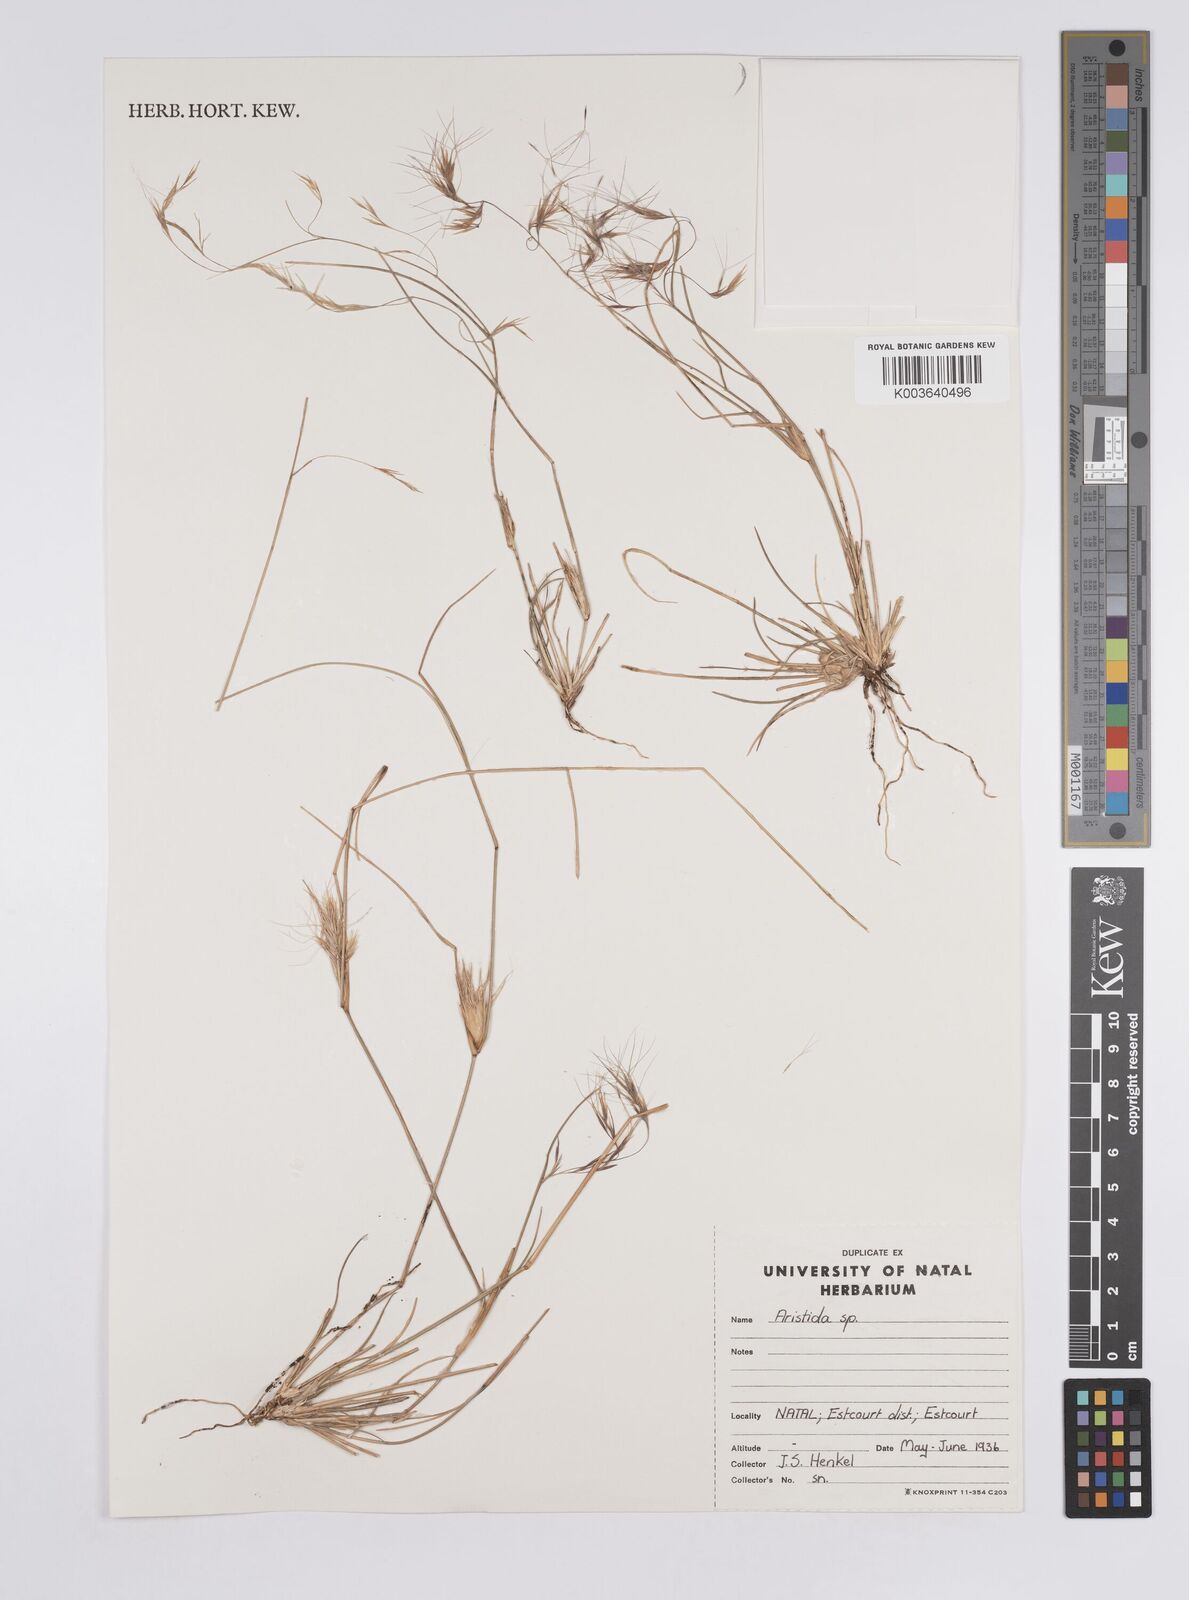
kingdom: Plantae
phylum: Tracheophyta
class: Liliopsida
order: Poales
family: Poaceae
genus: Aristida
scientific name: Aristida
